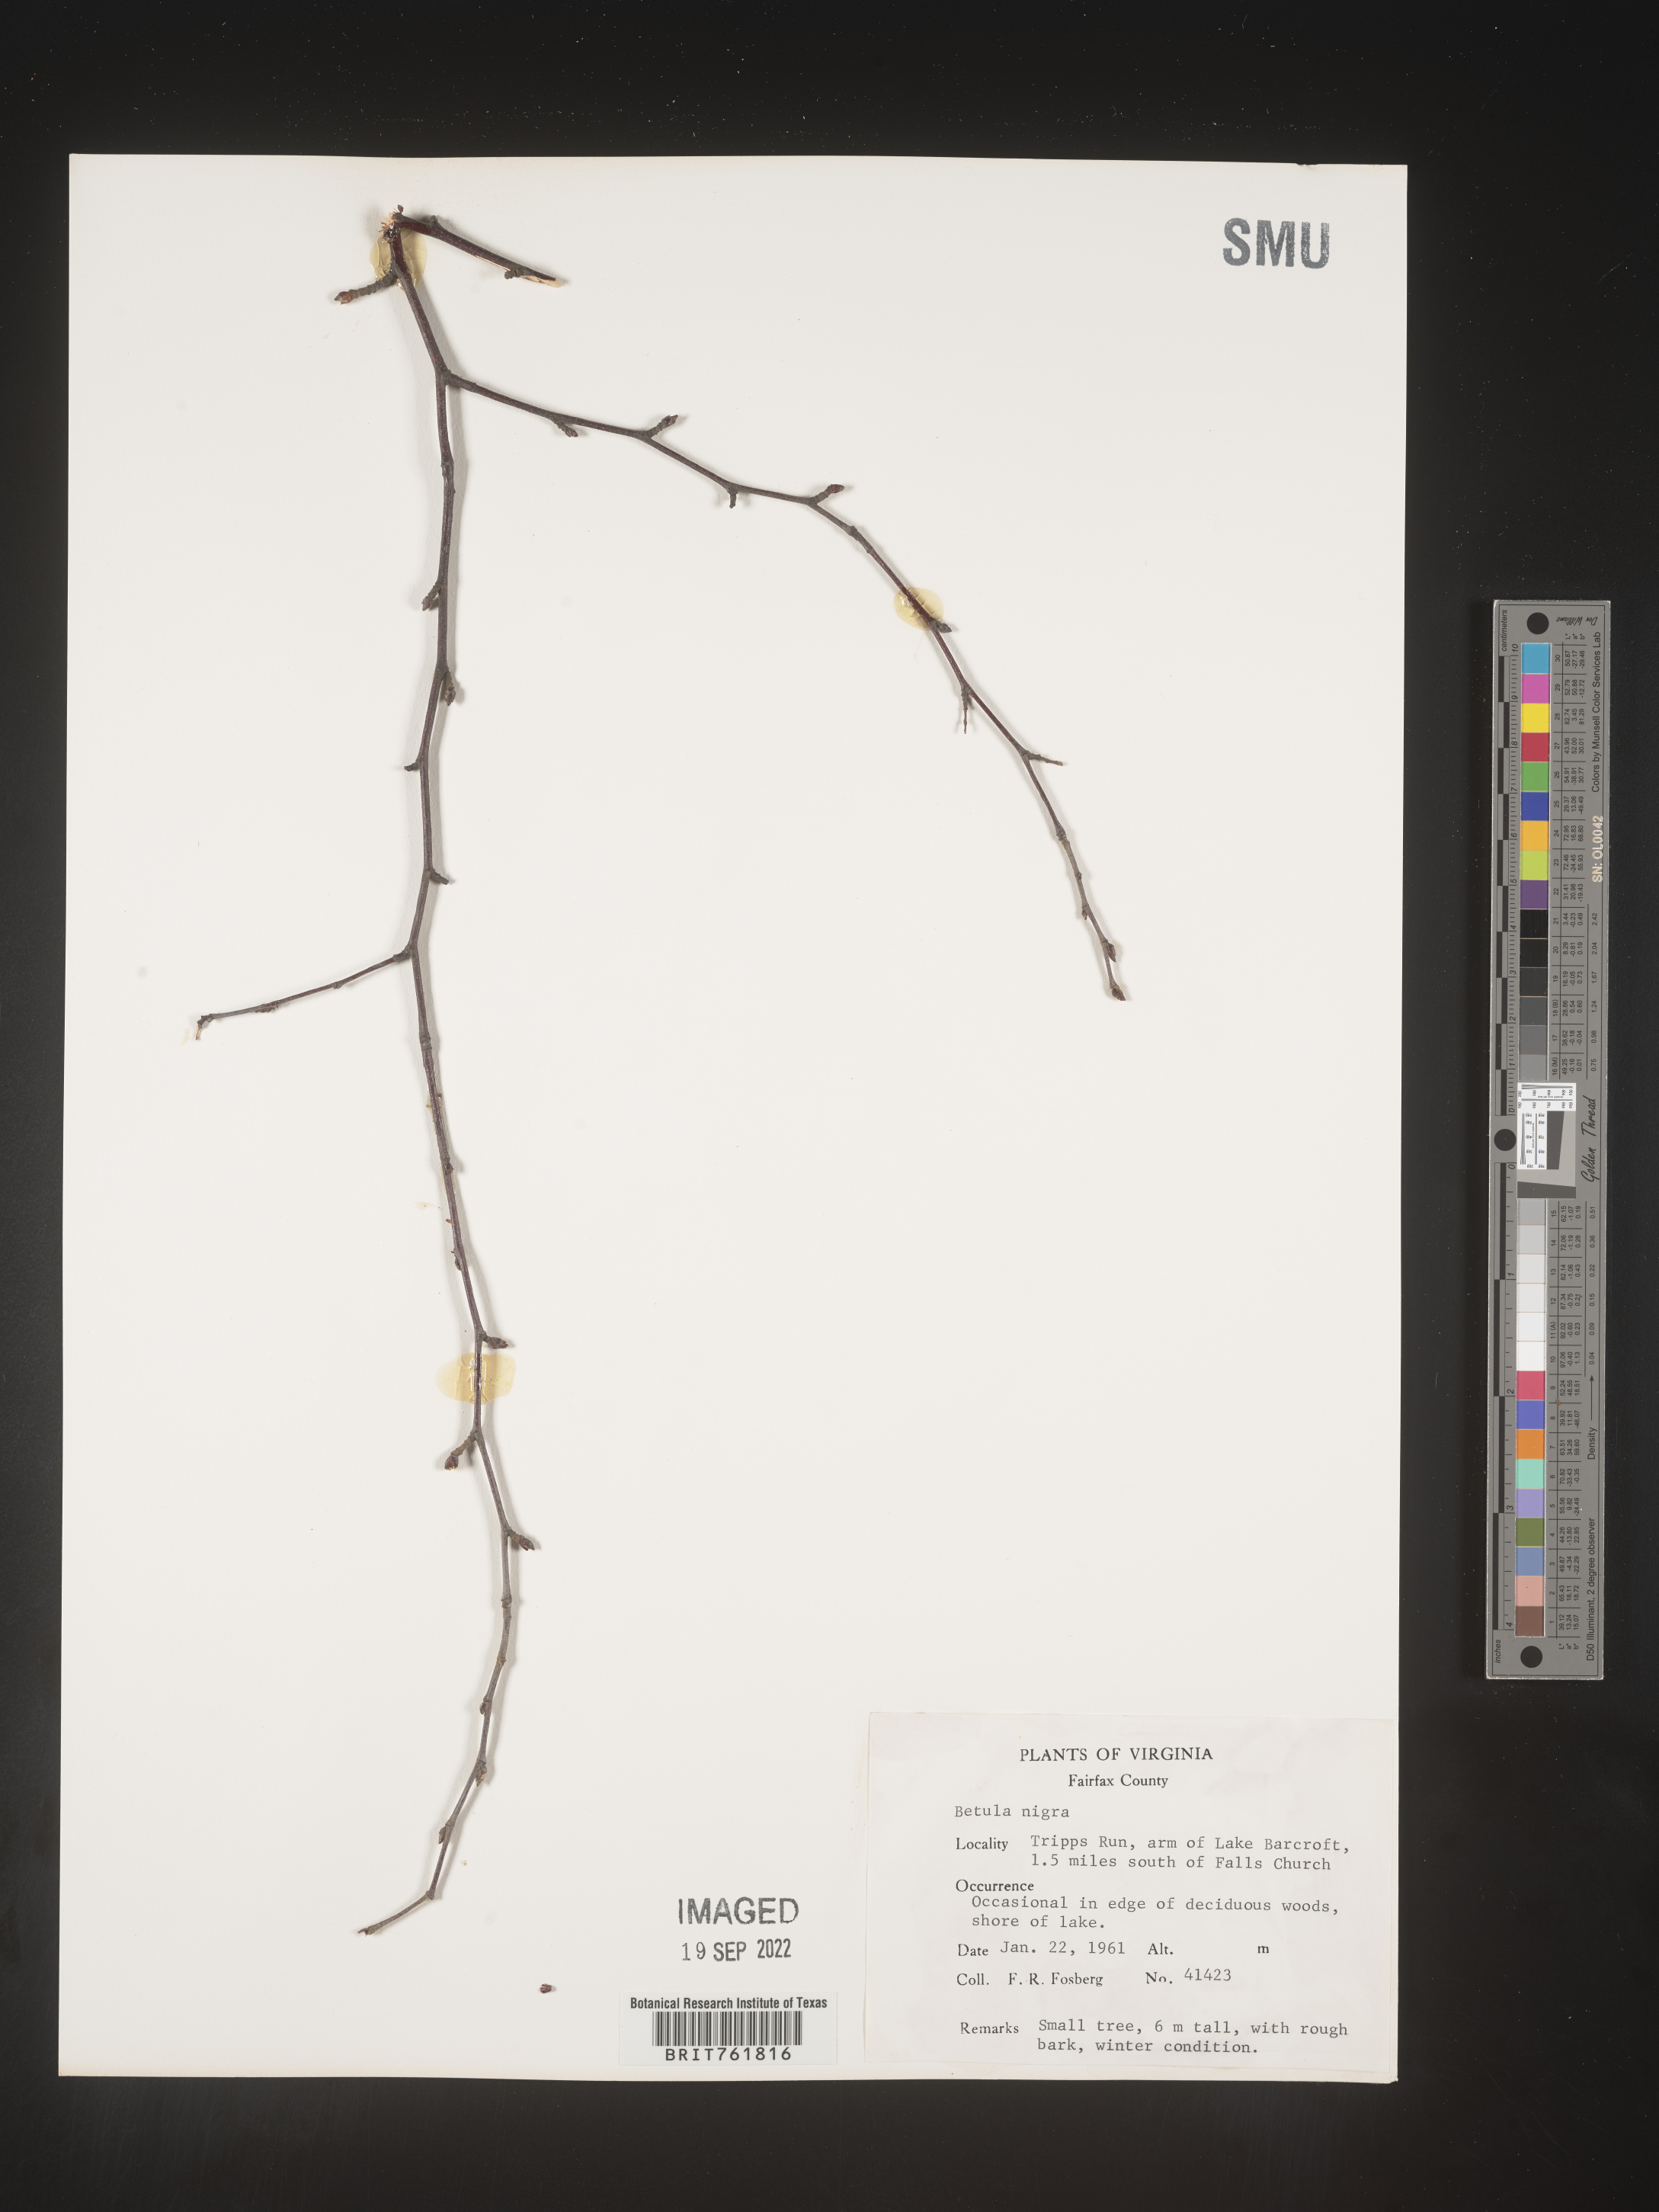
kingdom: Plantae
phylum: Tracheophyta
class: Magnoliopsida
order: Fagales
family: Betulaceae
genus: Betula
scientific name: Betula nigra
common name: Black birch
